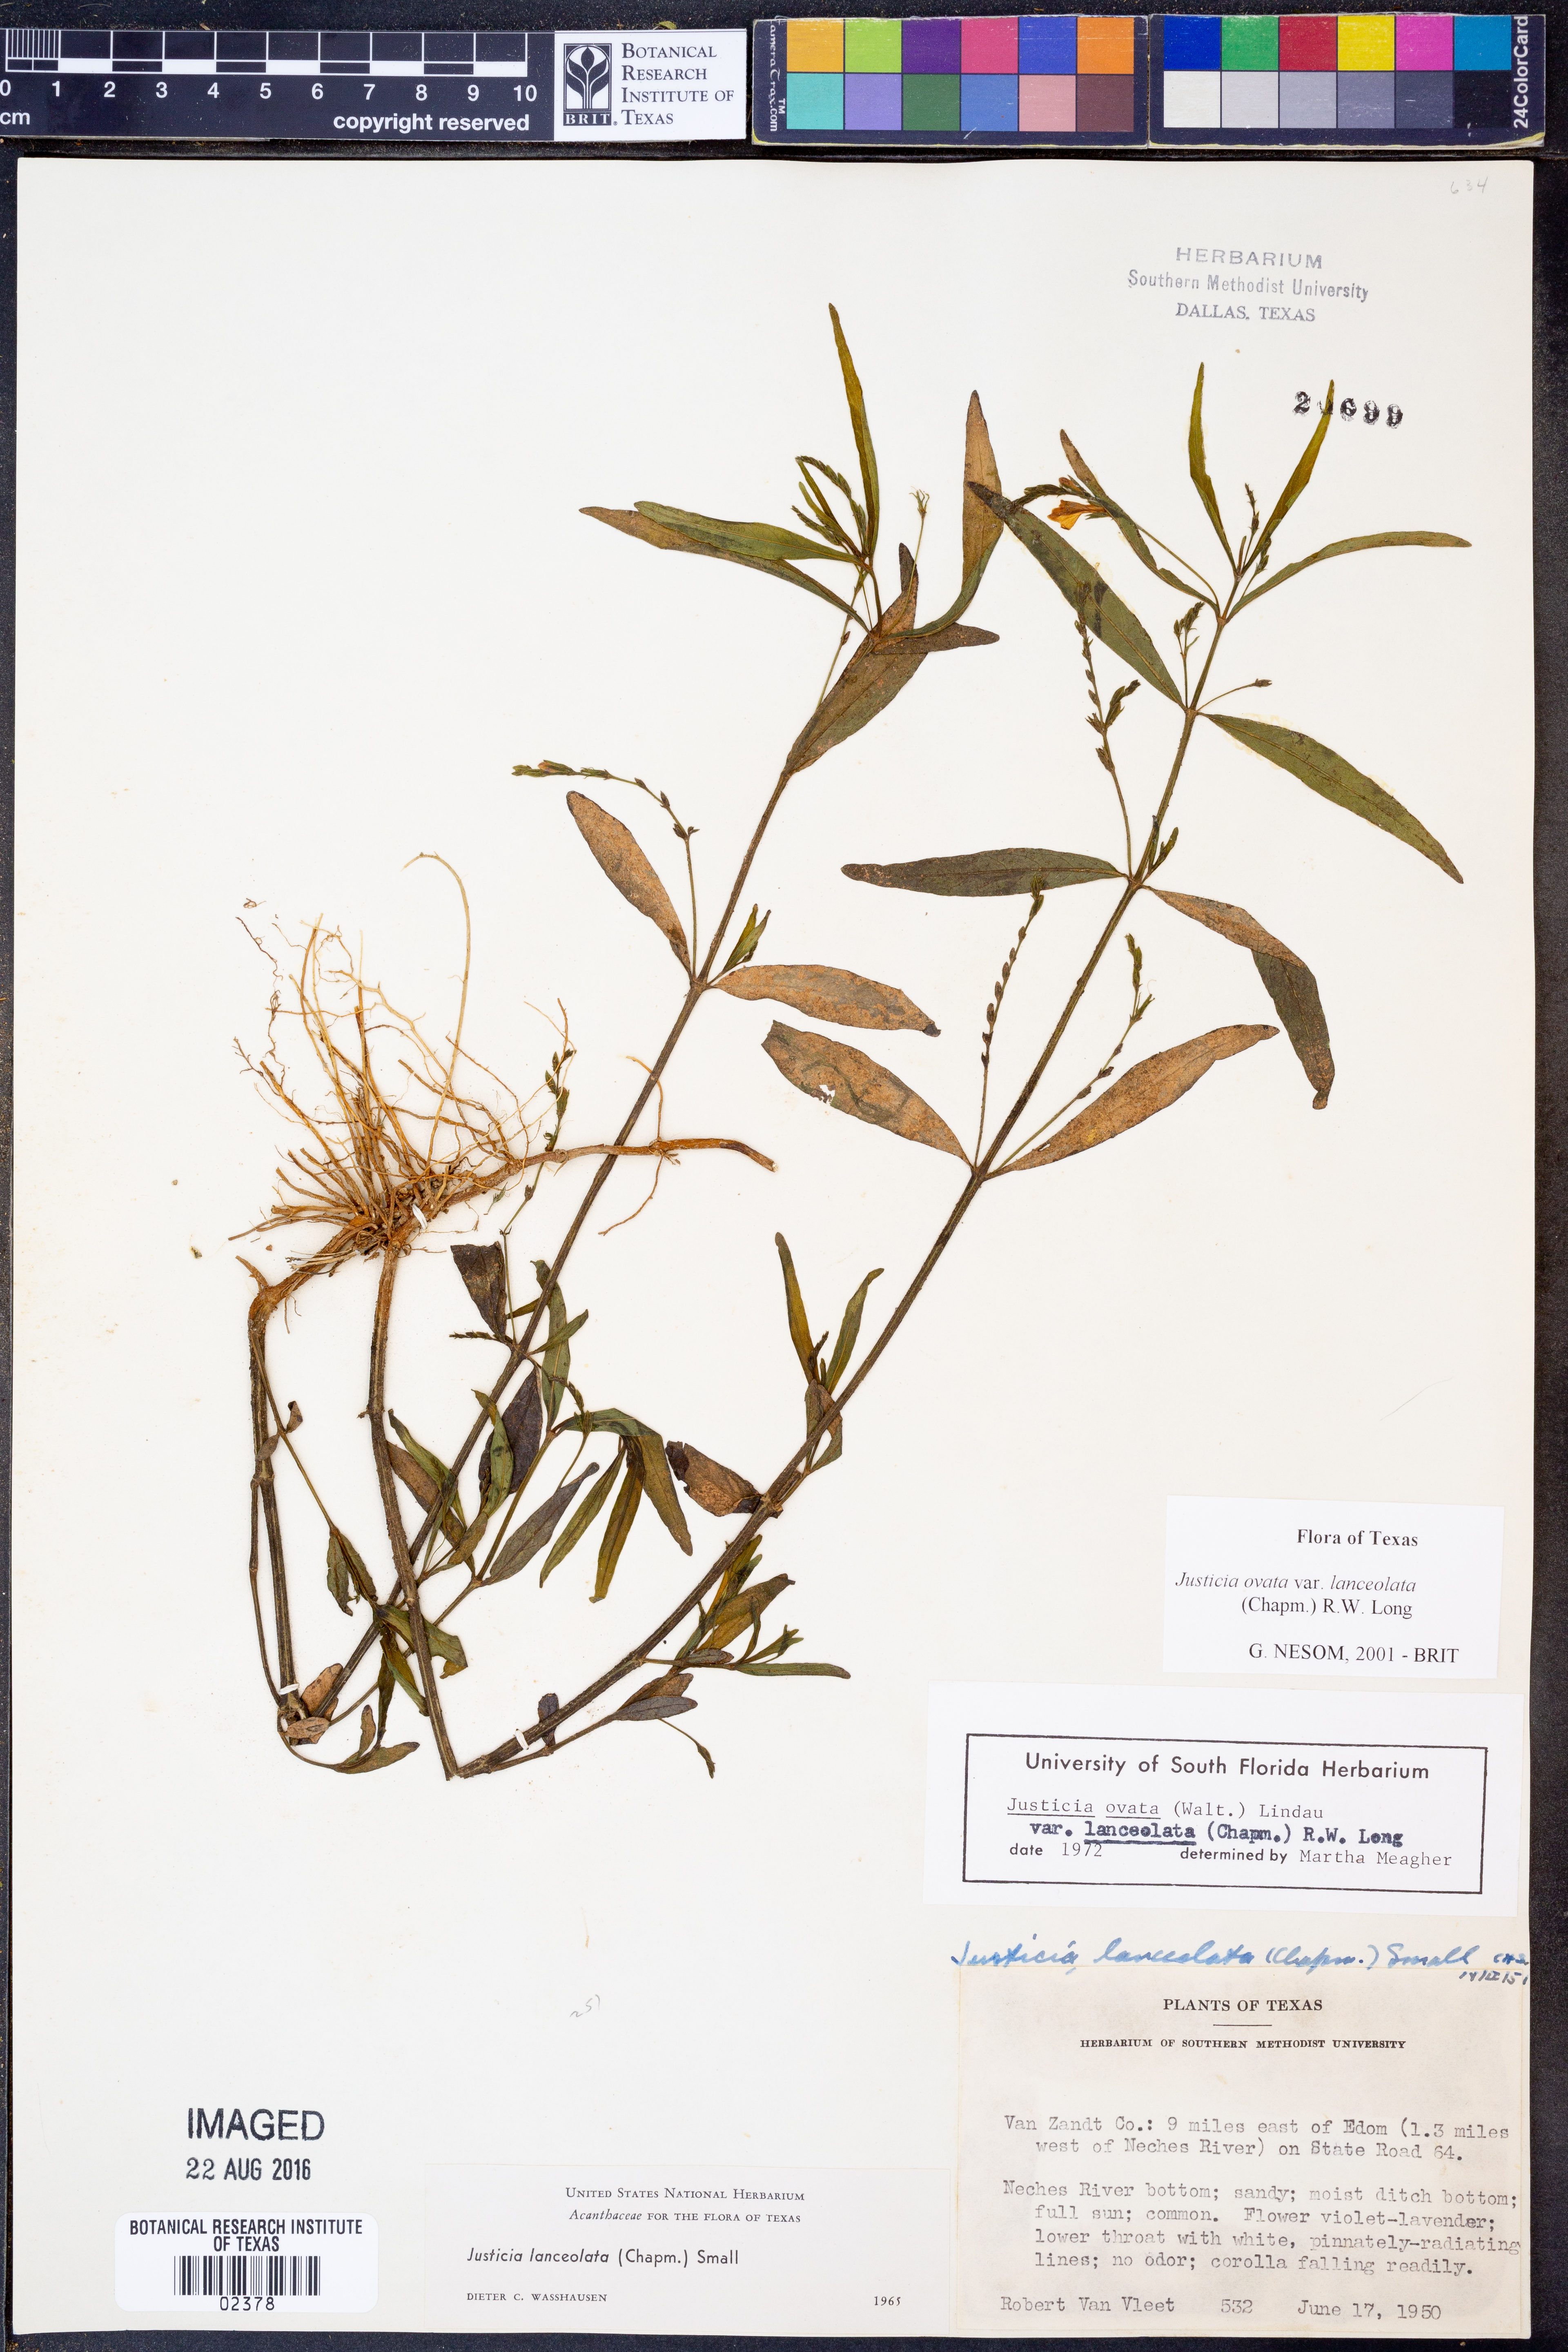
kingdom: Plantae
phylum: Tracheophyta
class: Magnoliopsida
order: Lamiales
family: Acanthaceae
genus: Justicia
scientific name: Justicia lanceolata
